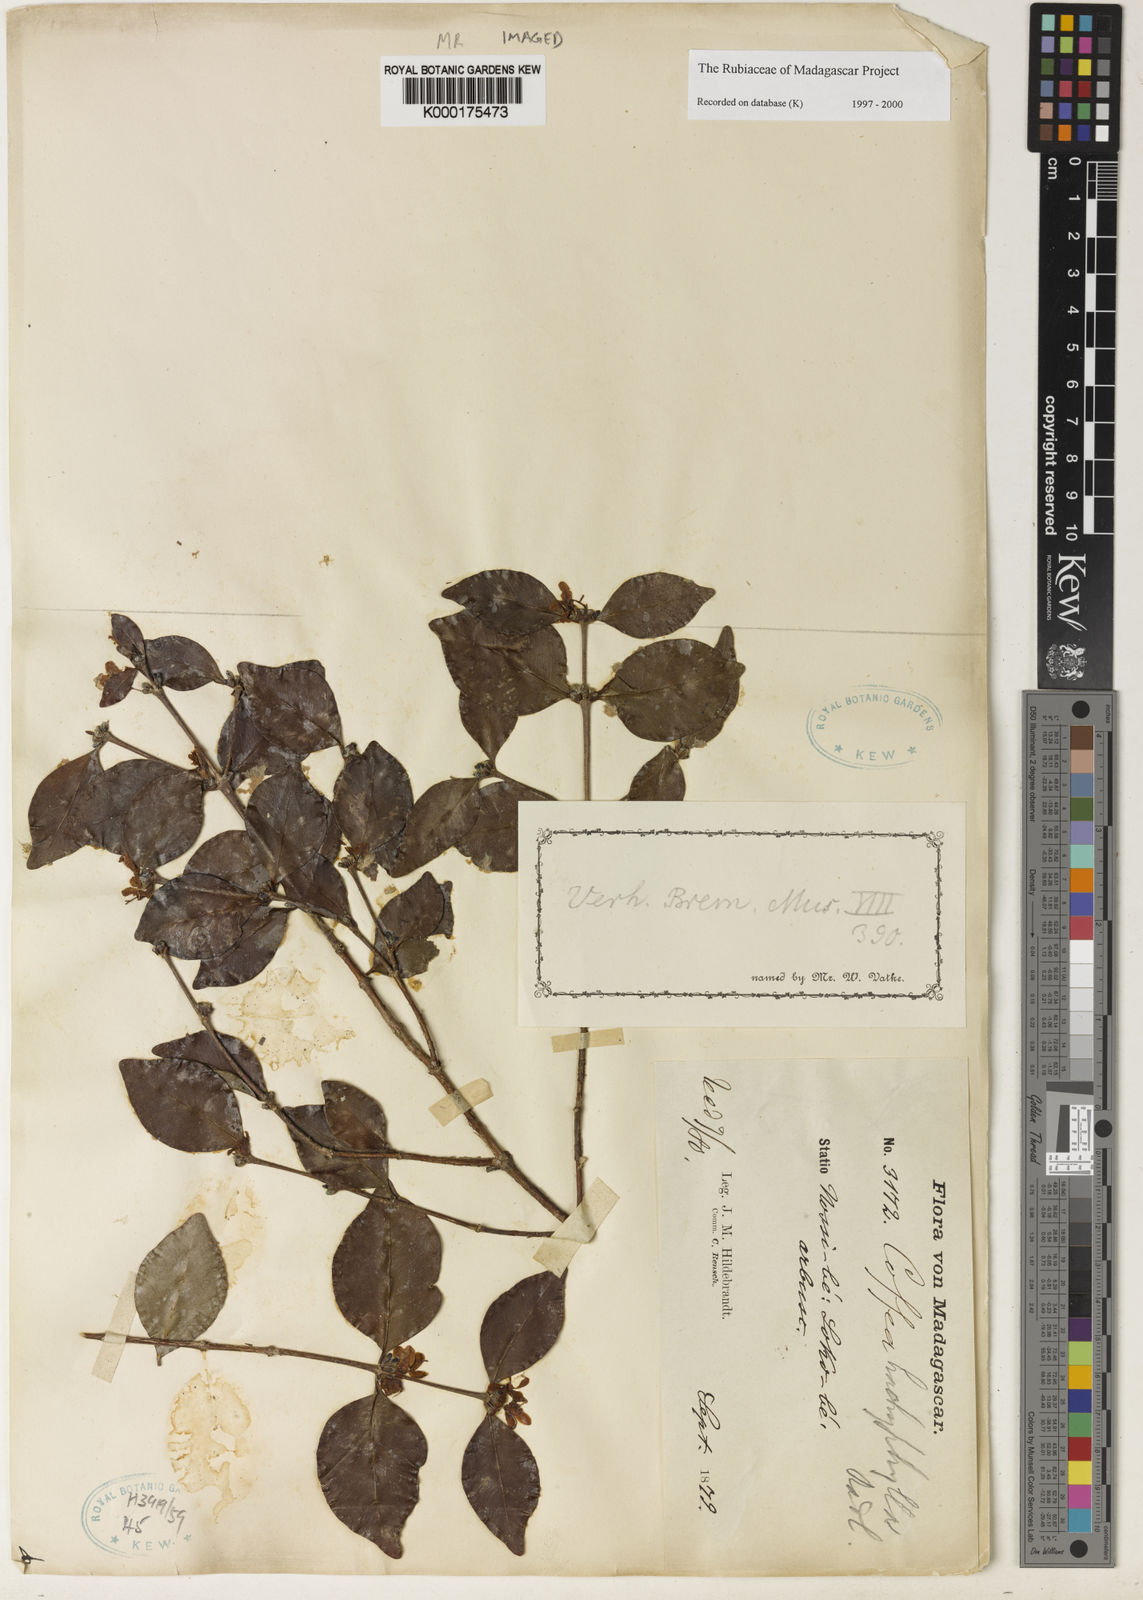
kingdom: Plantae
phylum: Tracheophyta
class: Magnoliopsida
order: Gentianales
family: Rubiaceae
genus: Coffea
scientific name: Coffea pervilleana
